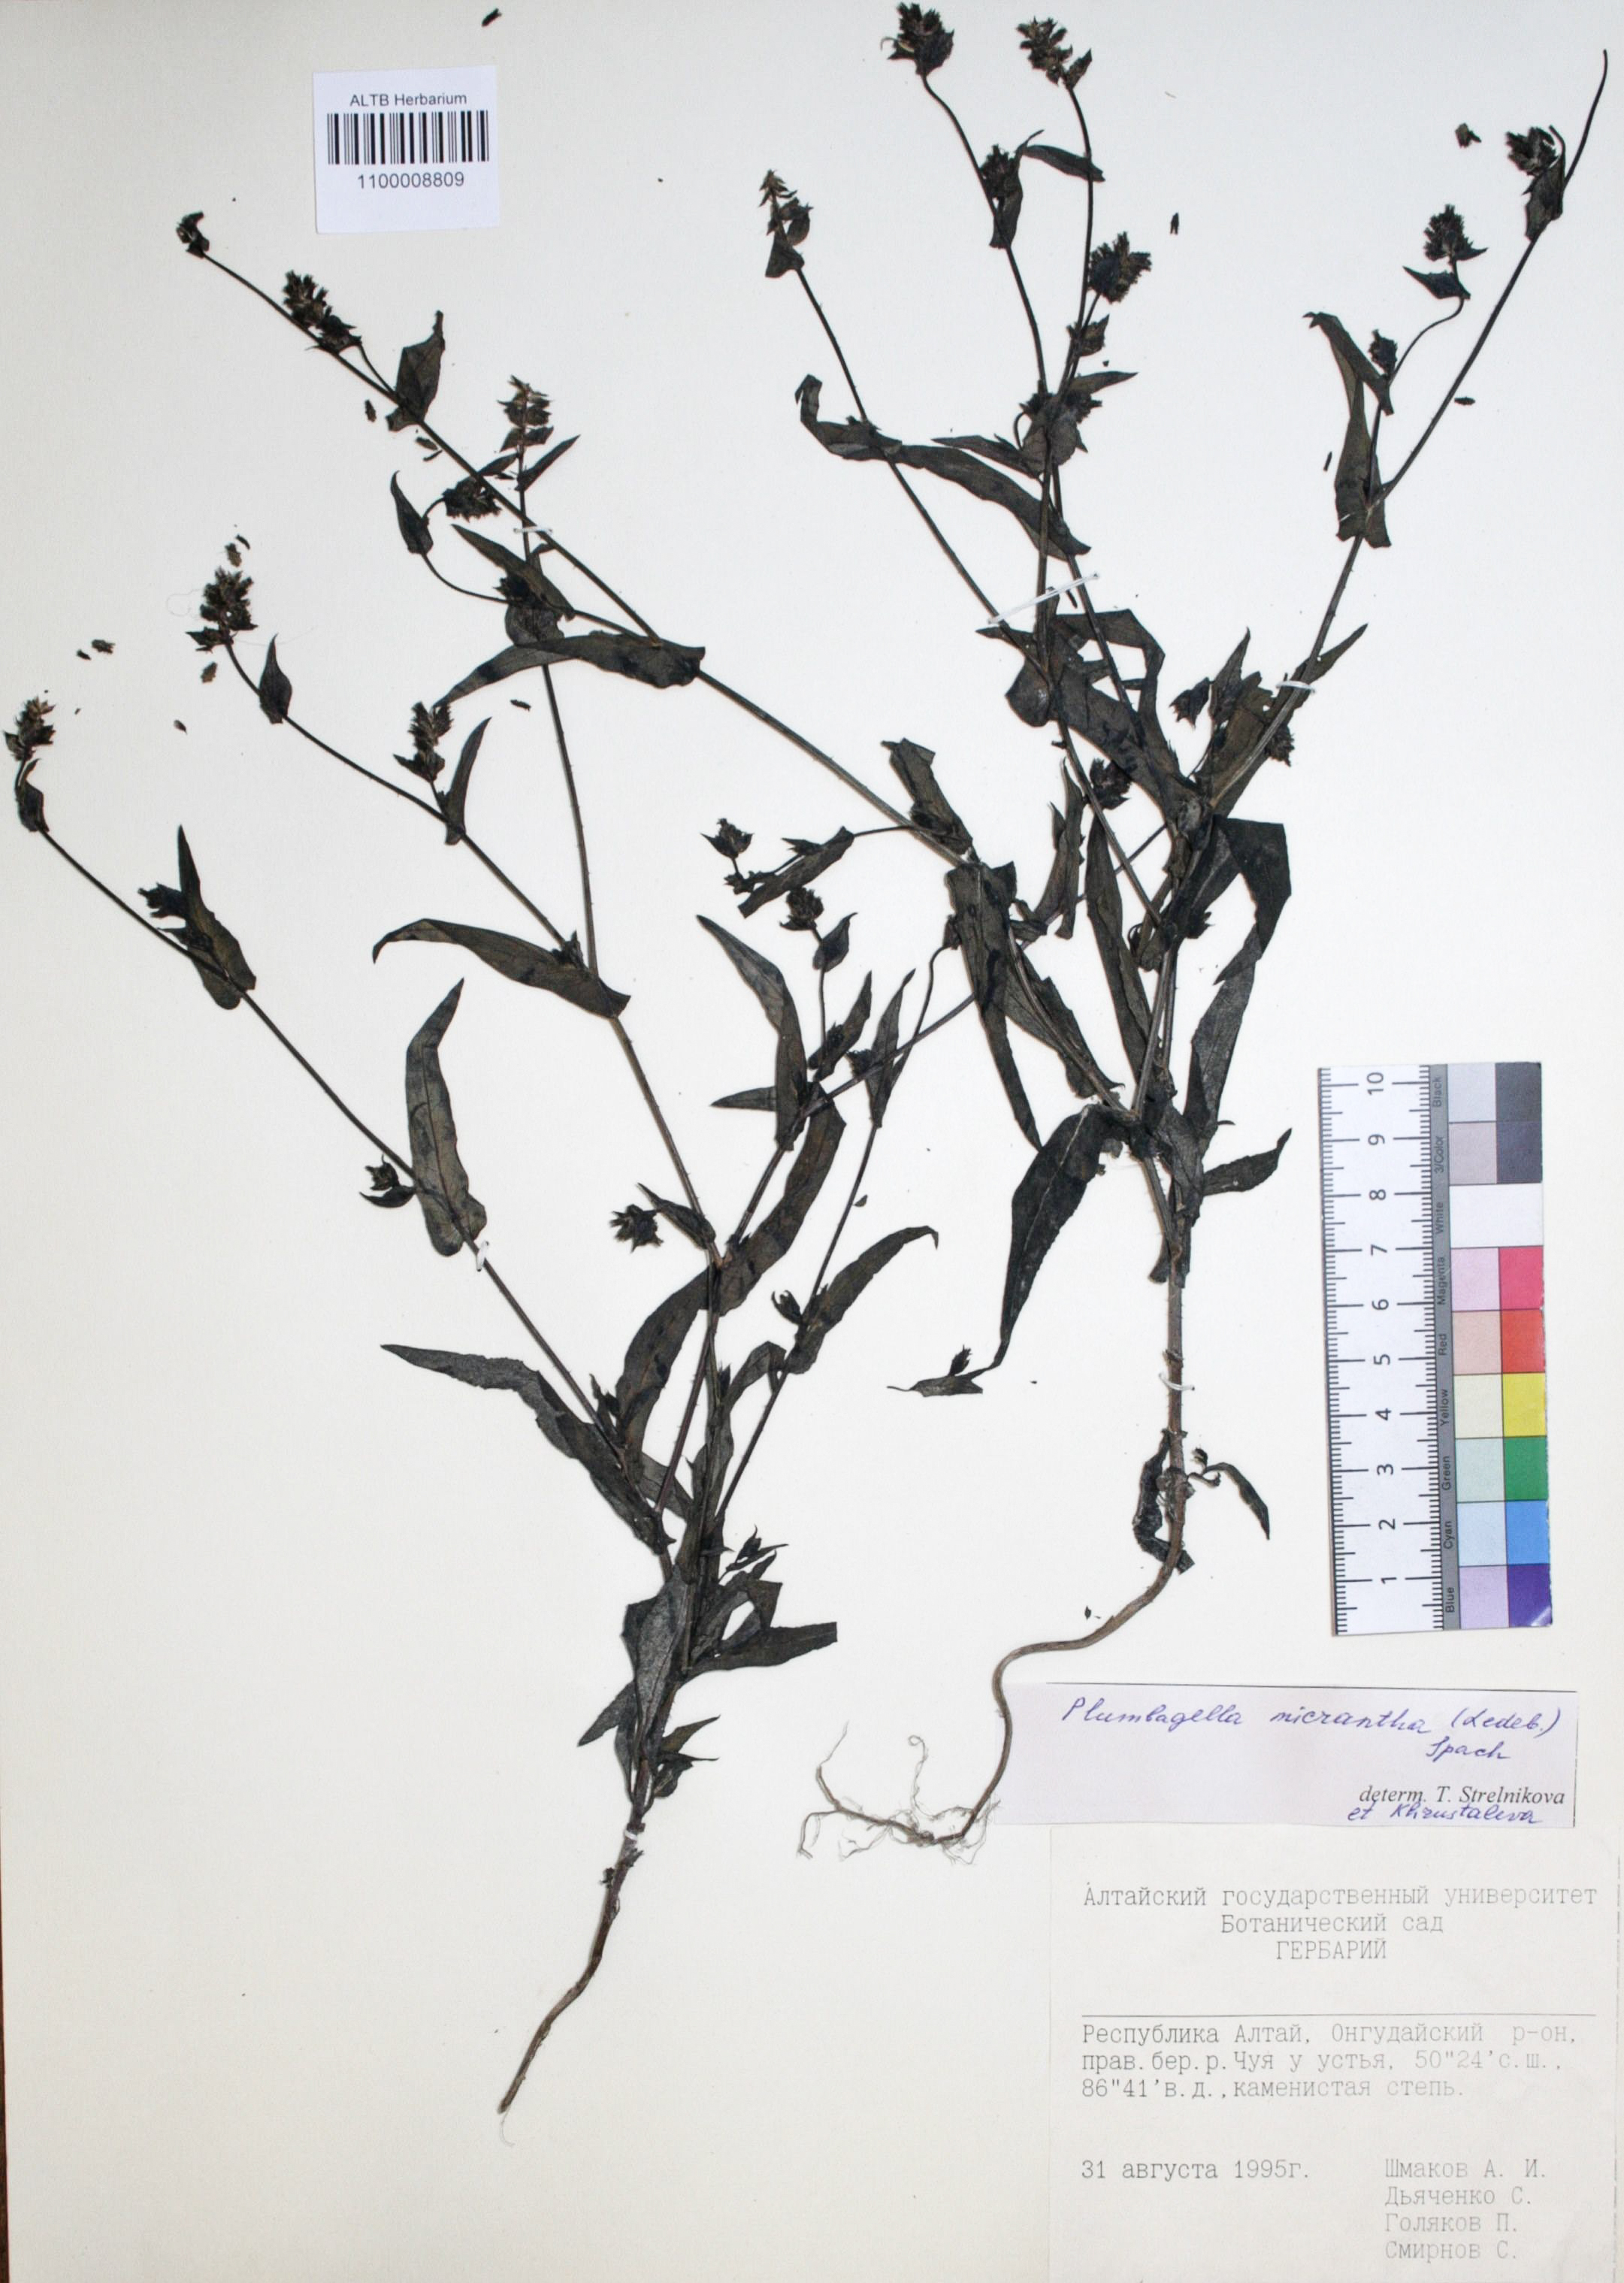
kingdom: Plantae
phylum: Tracheophyta
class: Magnoliopsida
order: Caryophyllales
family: Plumbaginaceae
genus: Plumbagella
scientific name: Plumbagella micrantha
